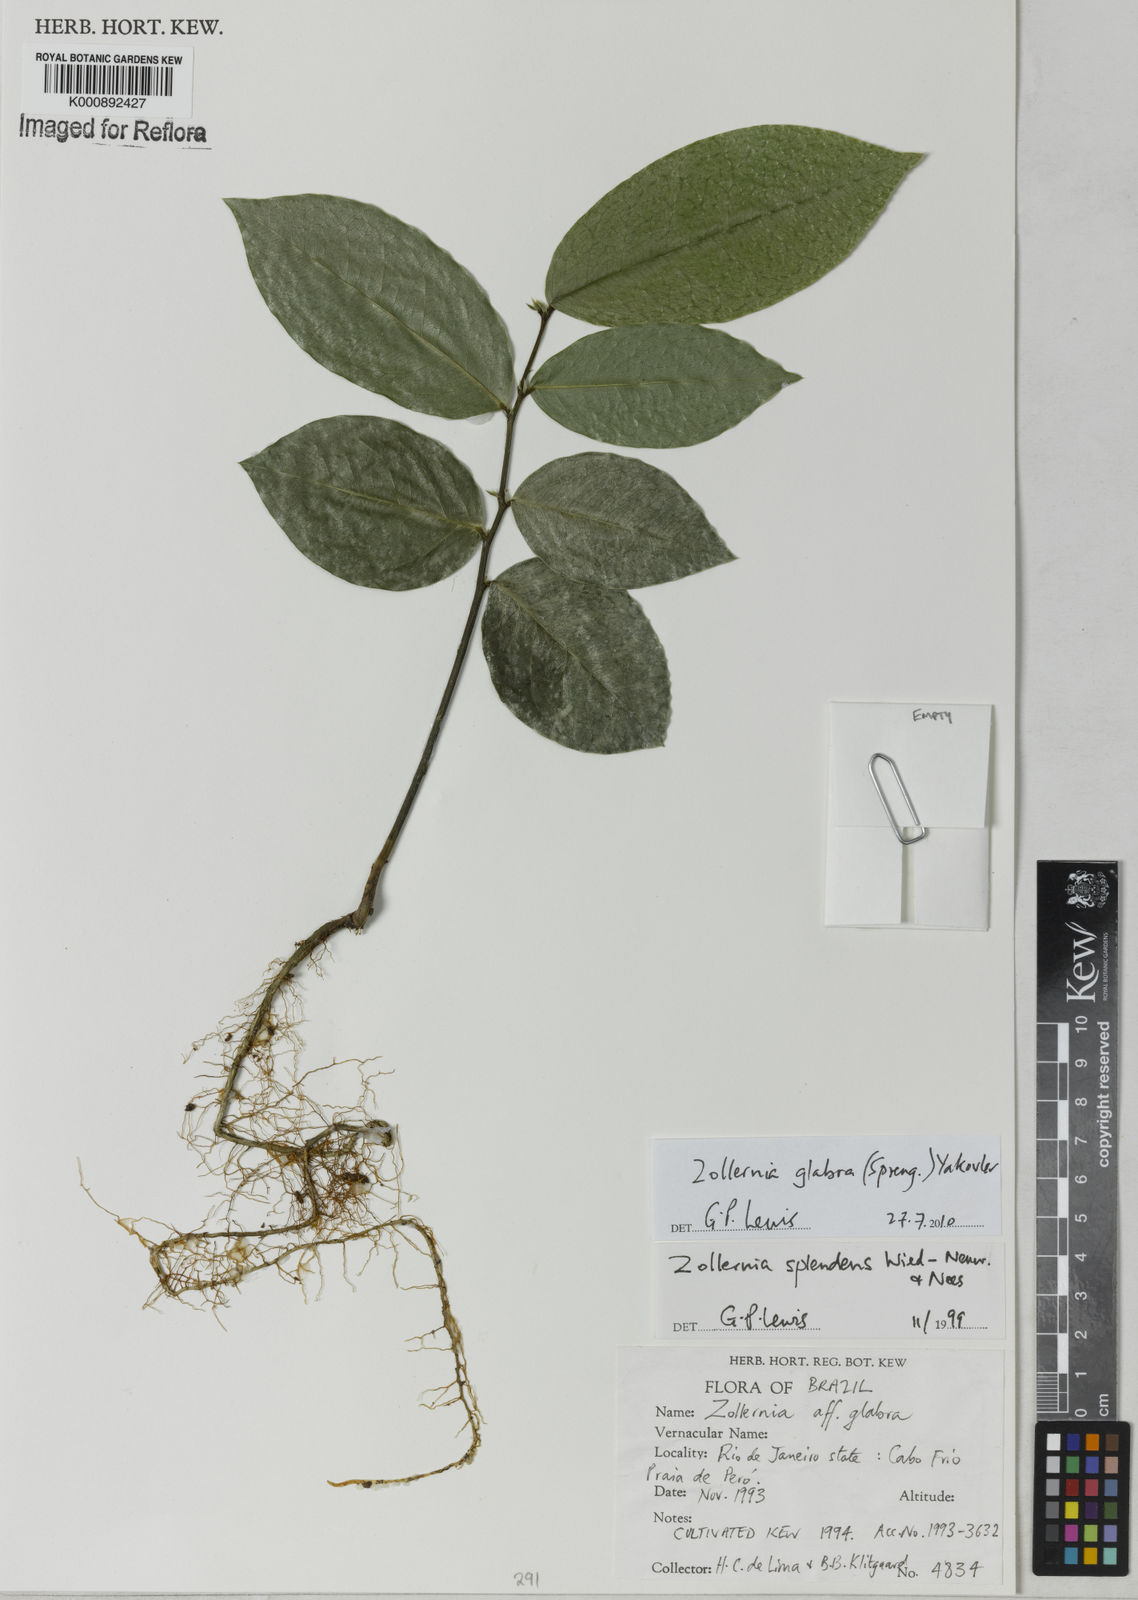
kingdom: Plantae
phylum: Tracheophyta
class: Magnoliopsida
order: Fabales
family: Fabaceae
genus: Zollernia
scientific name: Zollernia glabra
